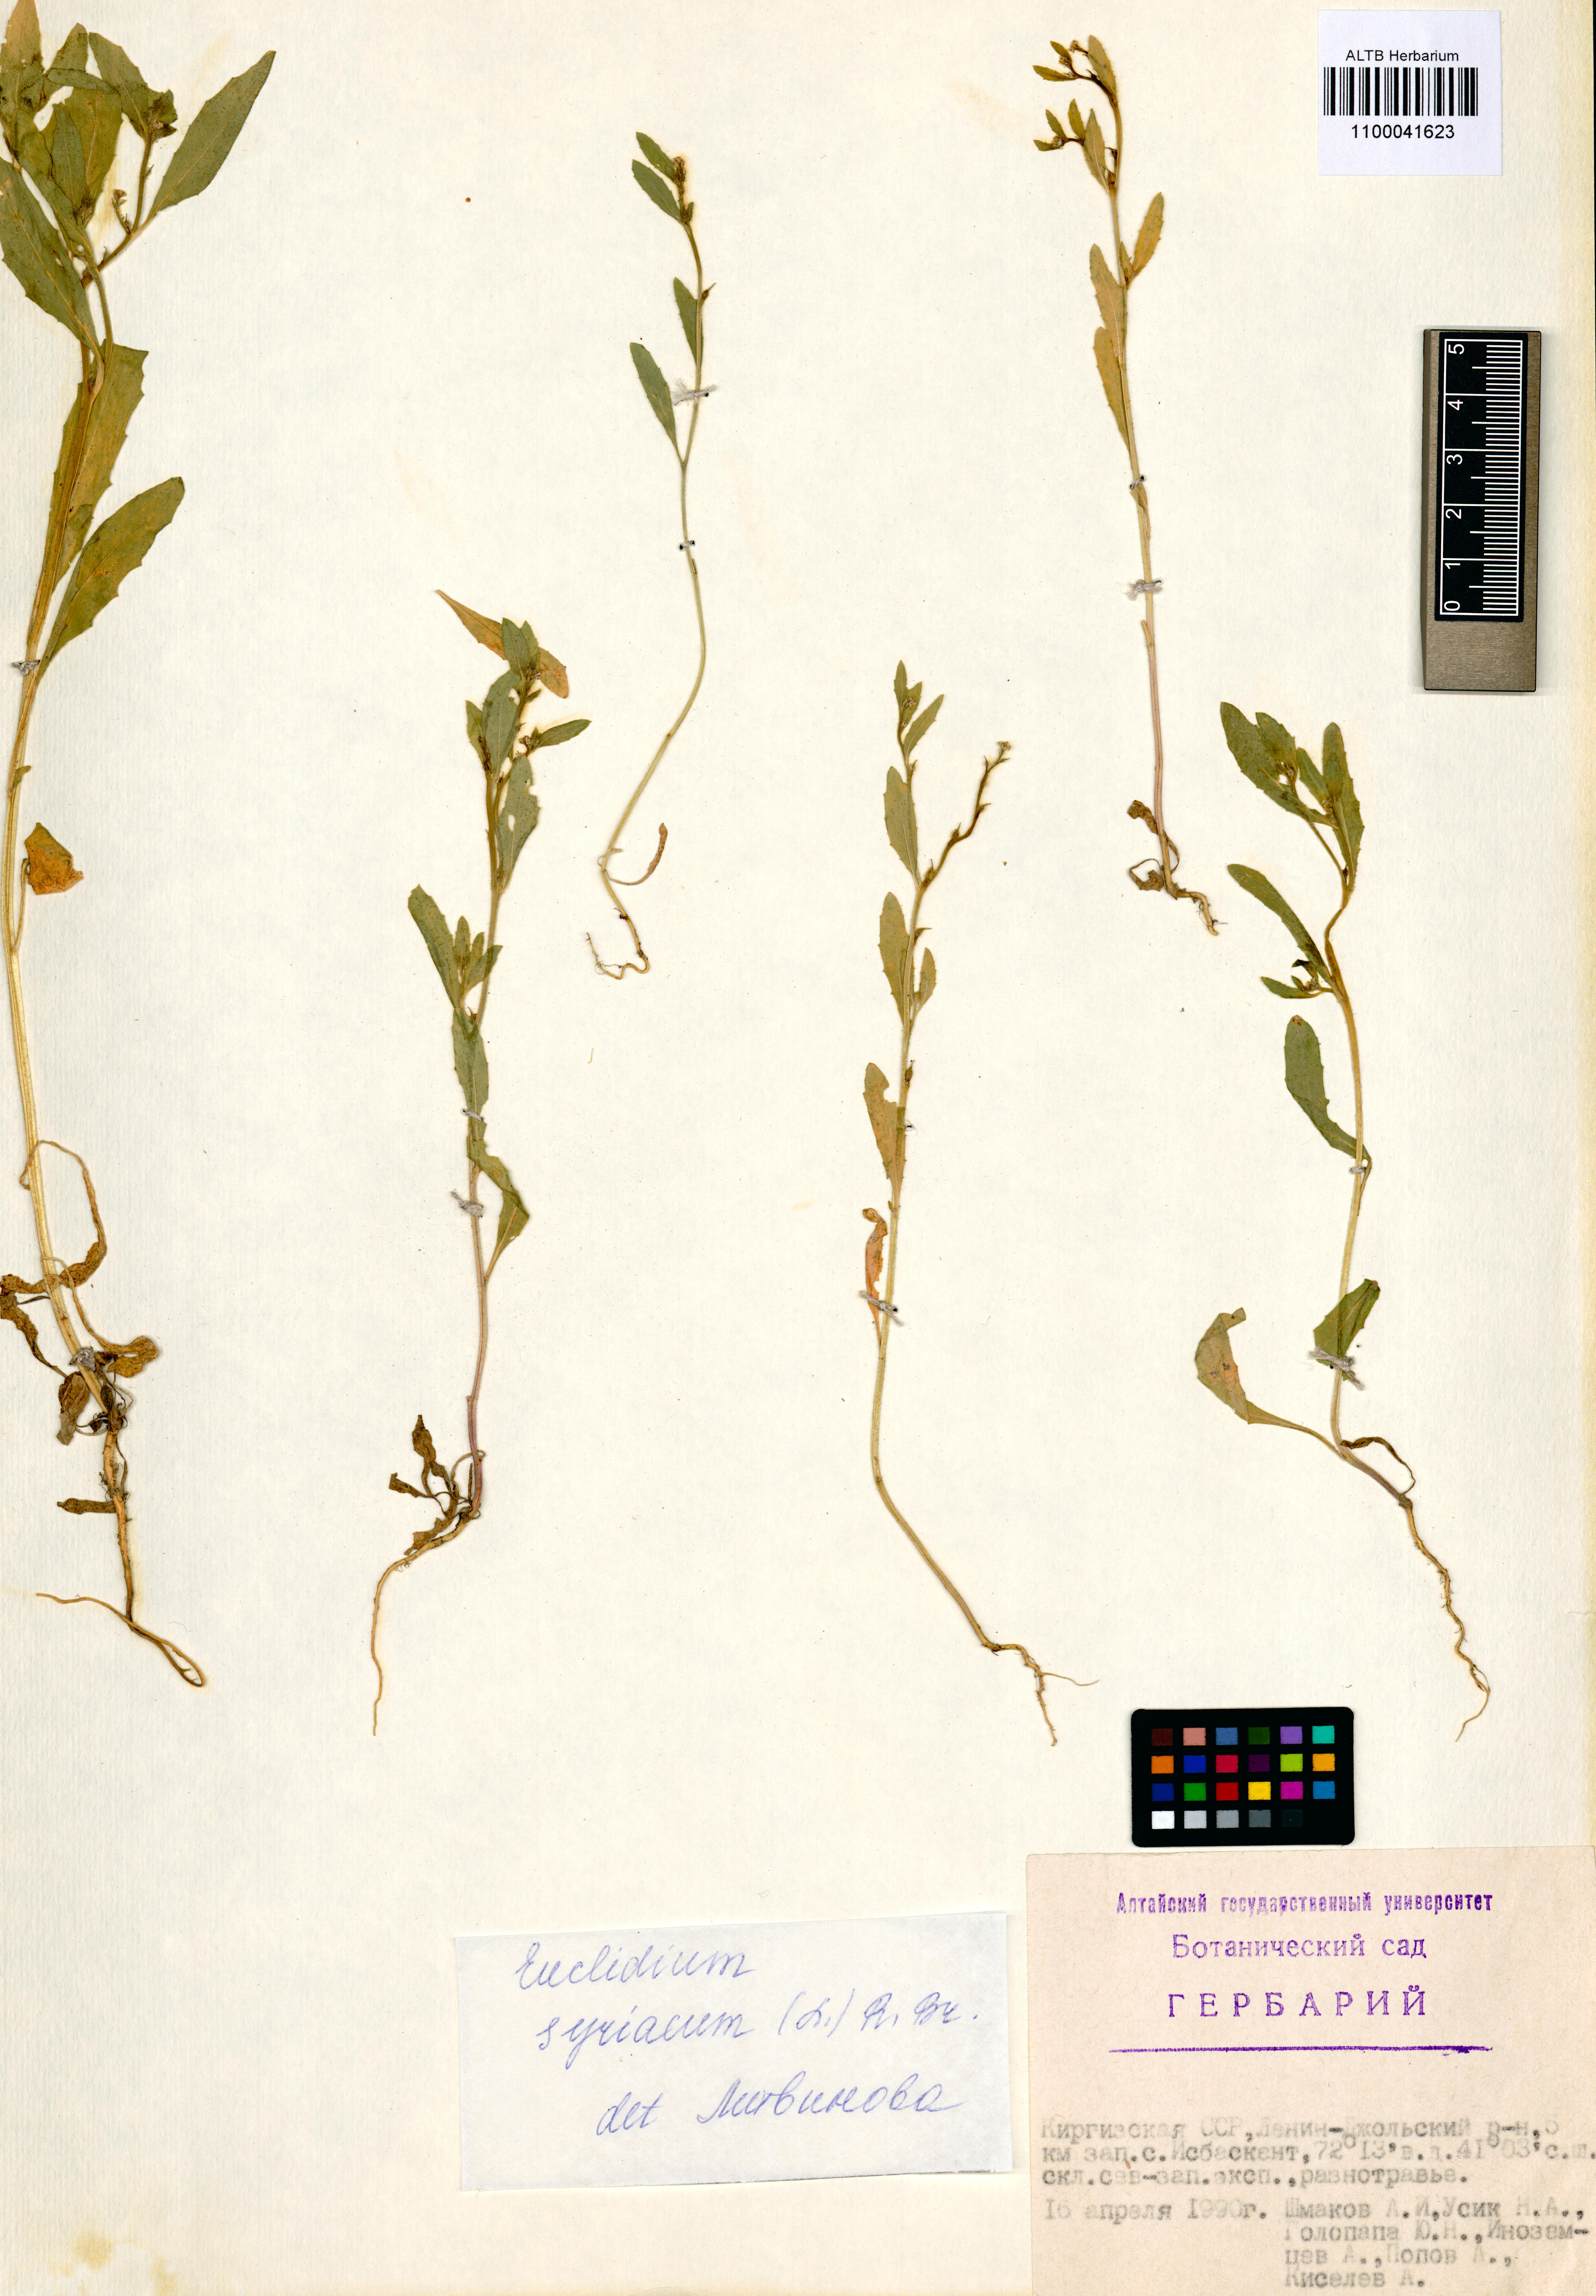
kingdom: Plantae
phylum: Tracheophyta
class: Magnoliopsida
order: Brassicales
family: Brassicaceae
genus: Euclidium
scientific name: Euclidium syriacum
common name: Syrian mustard
